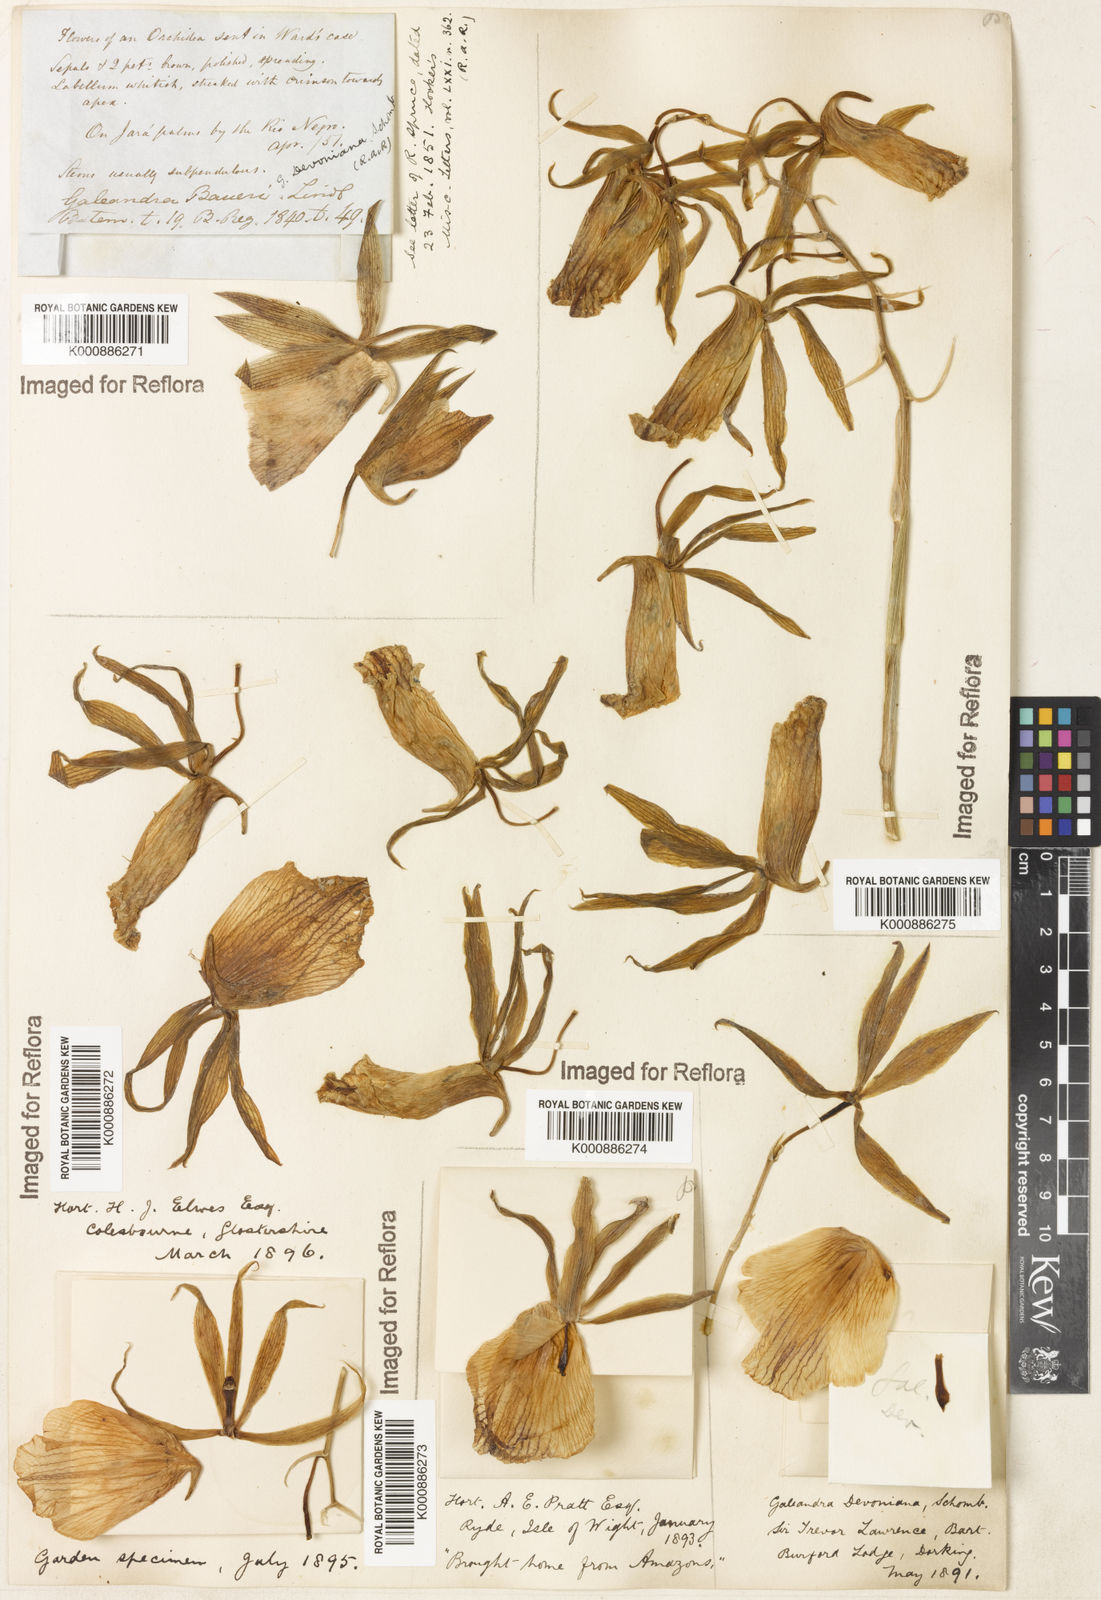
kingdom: Plantae
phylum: Tracheophyta
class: Liliopsida
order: Asparagales
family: Orchidaceae
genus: Galeandra
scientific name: Galeandra
